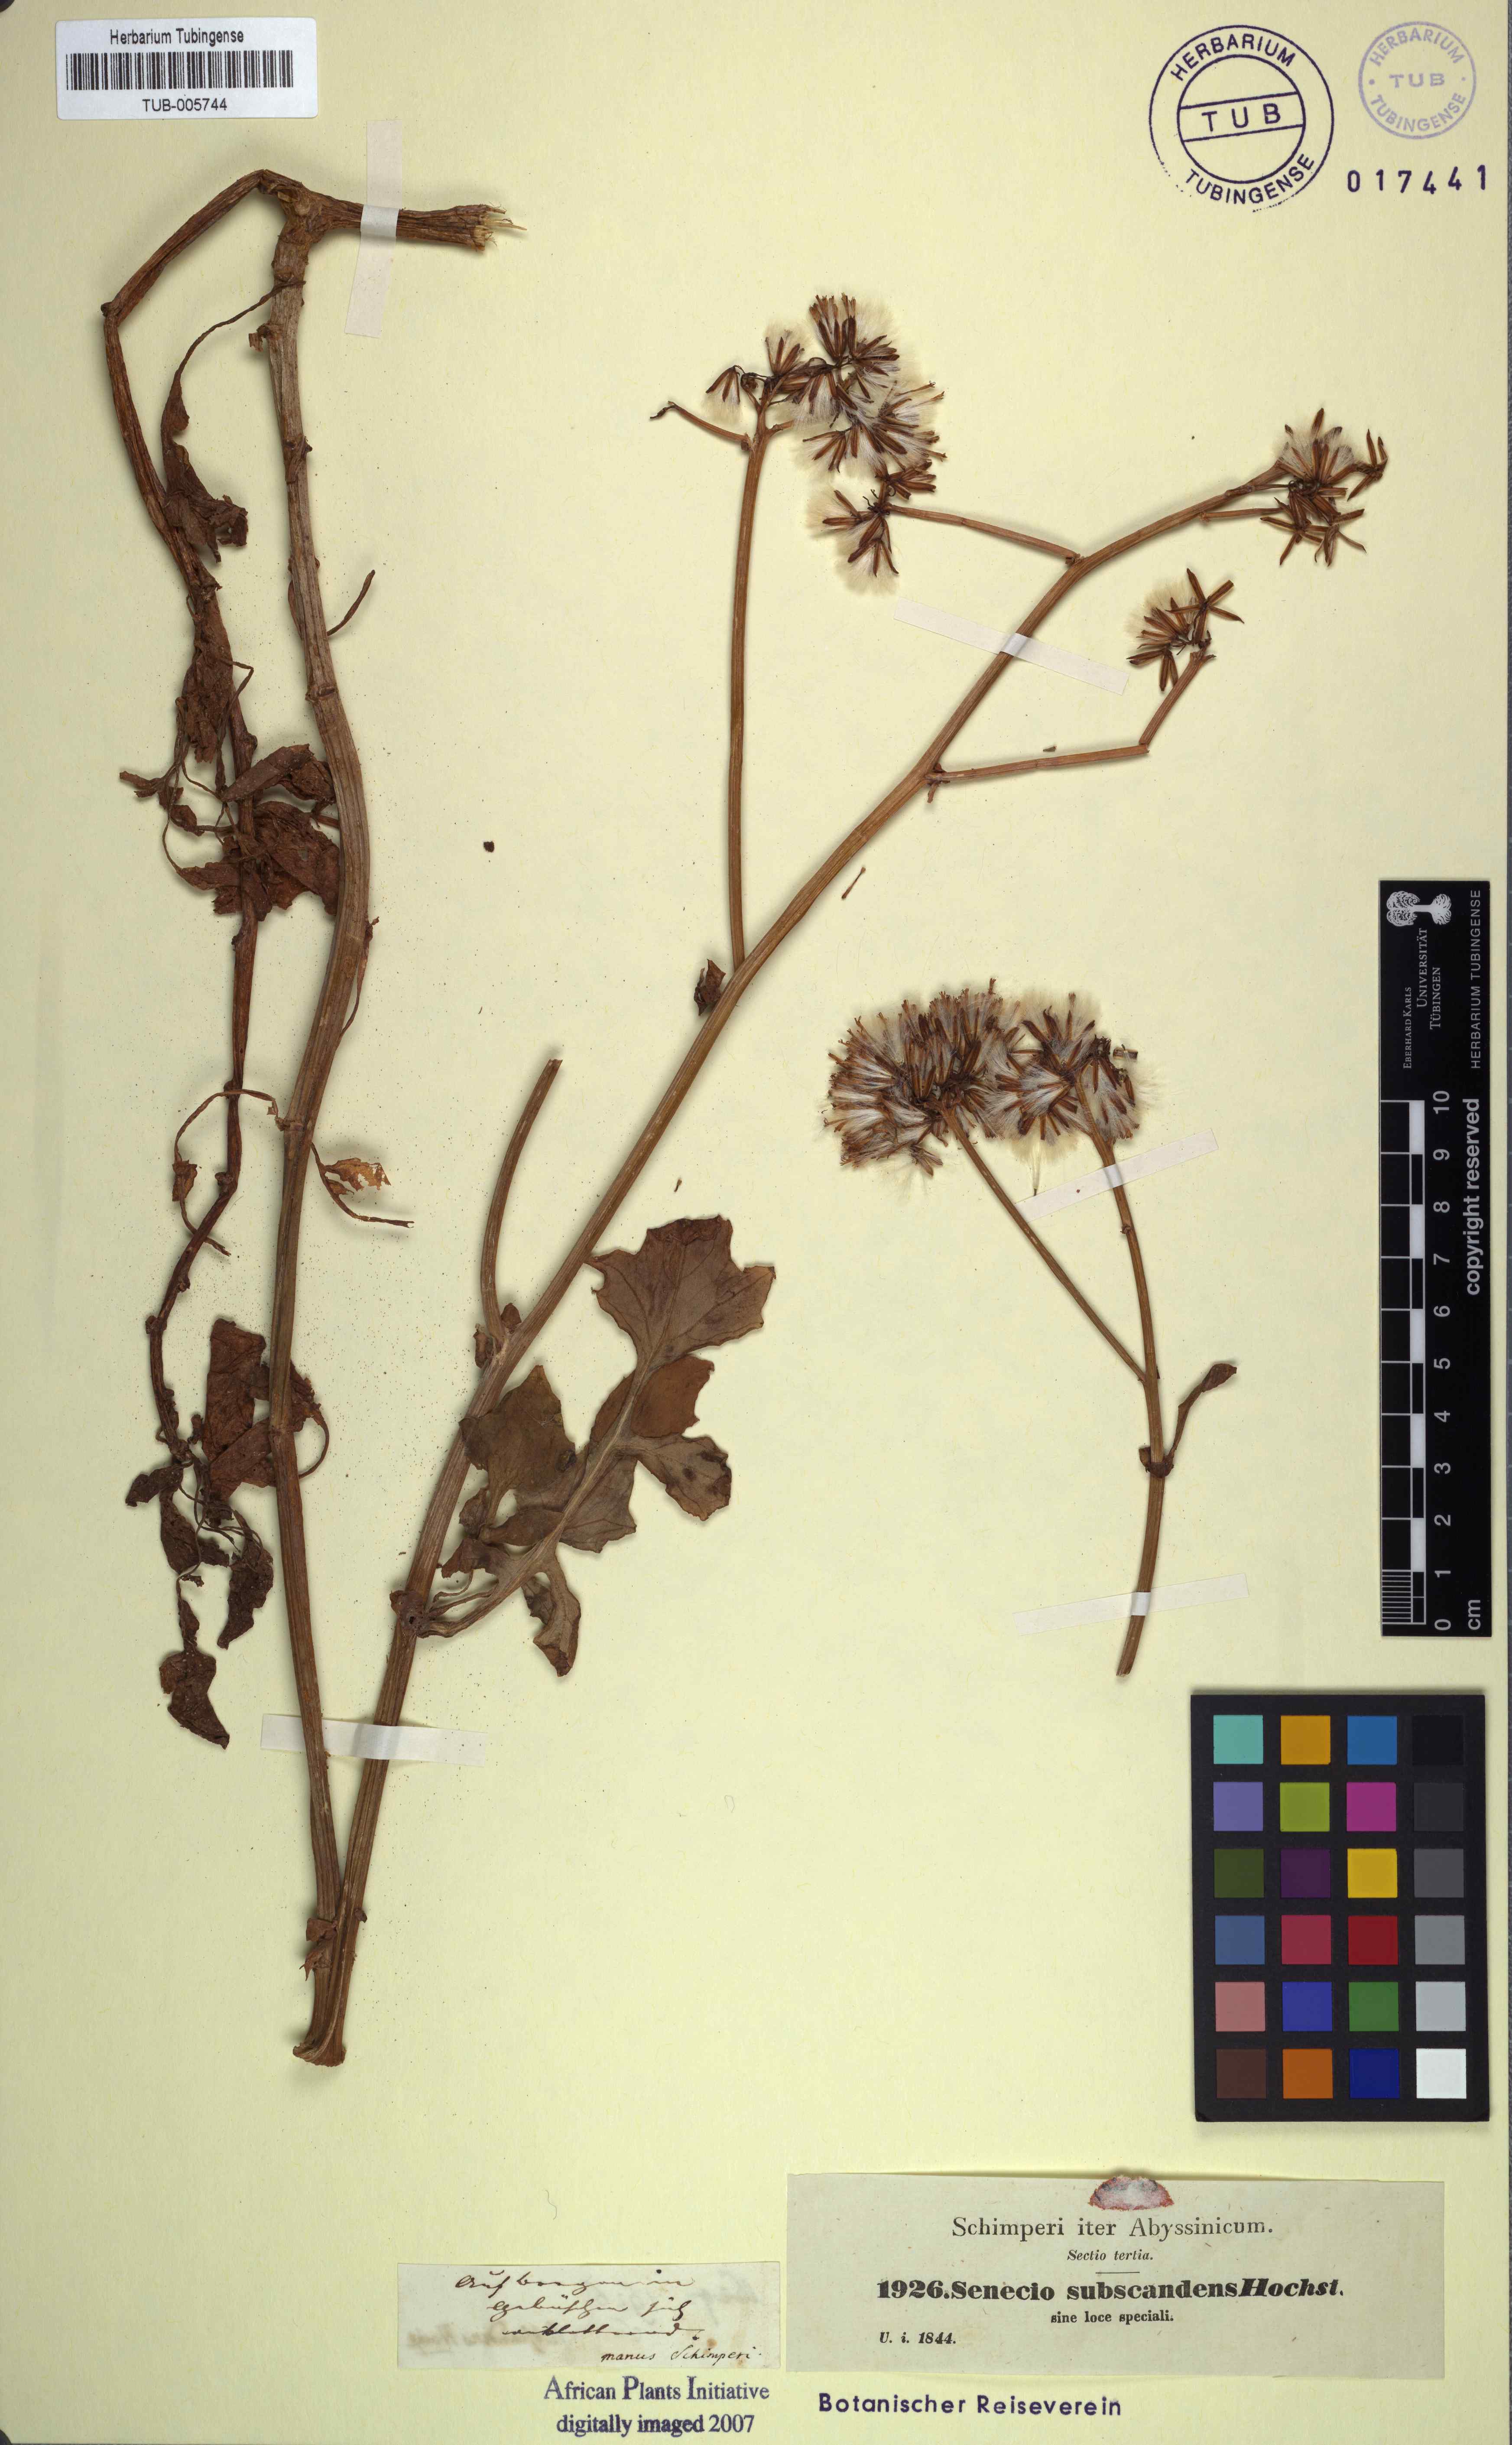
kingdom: Plantae
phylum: Tracheophyta
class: Magnoliopsida
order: Asterales
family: Asteraceae
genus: Solanecio
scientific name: Solanecio angulatus
